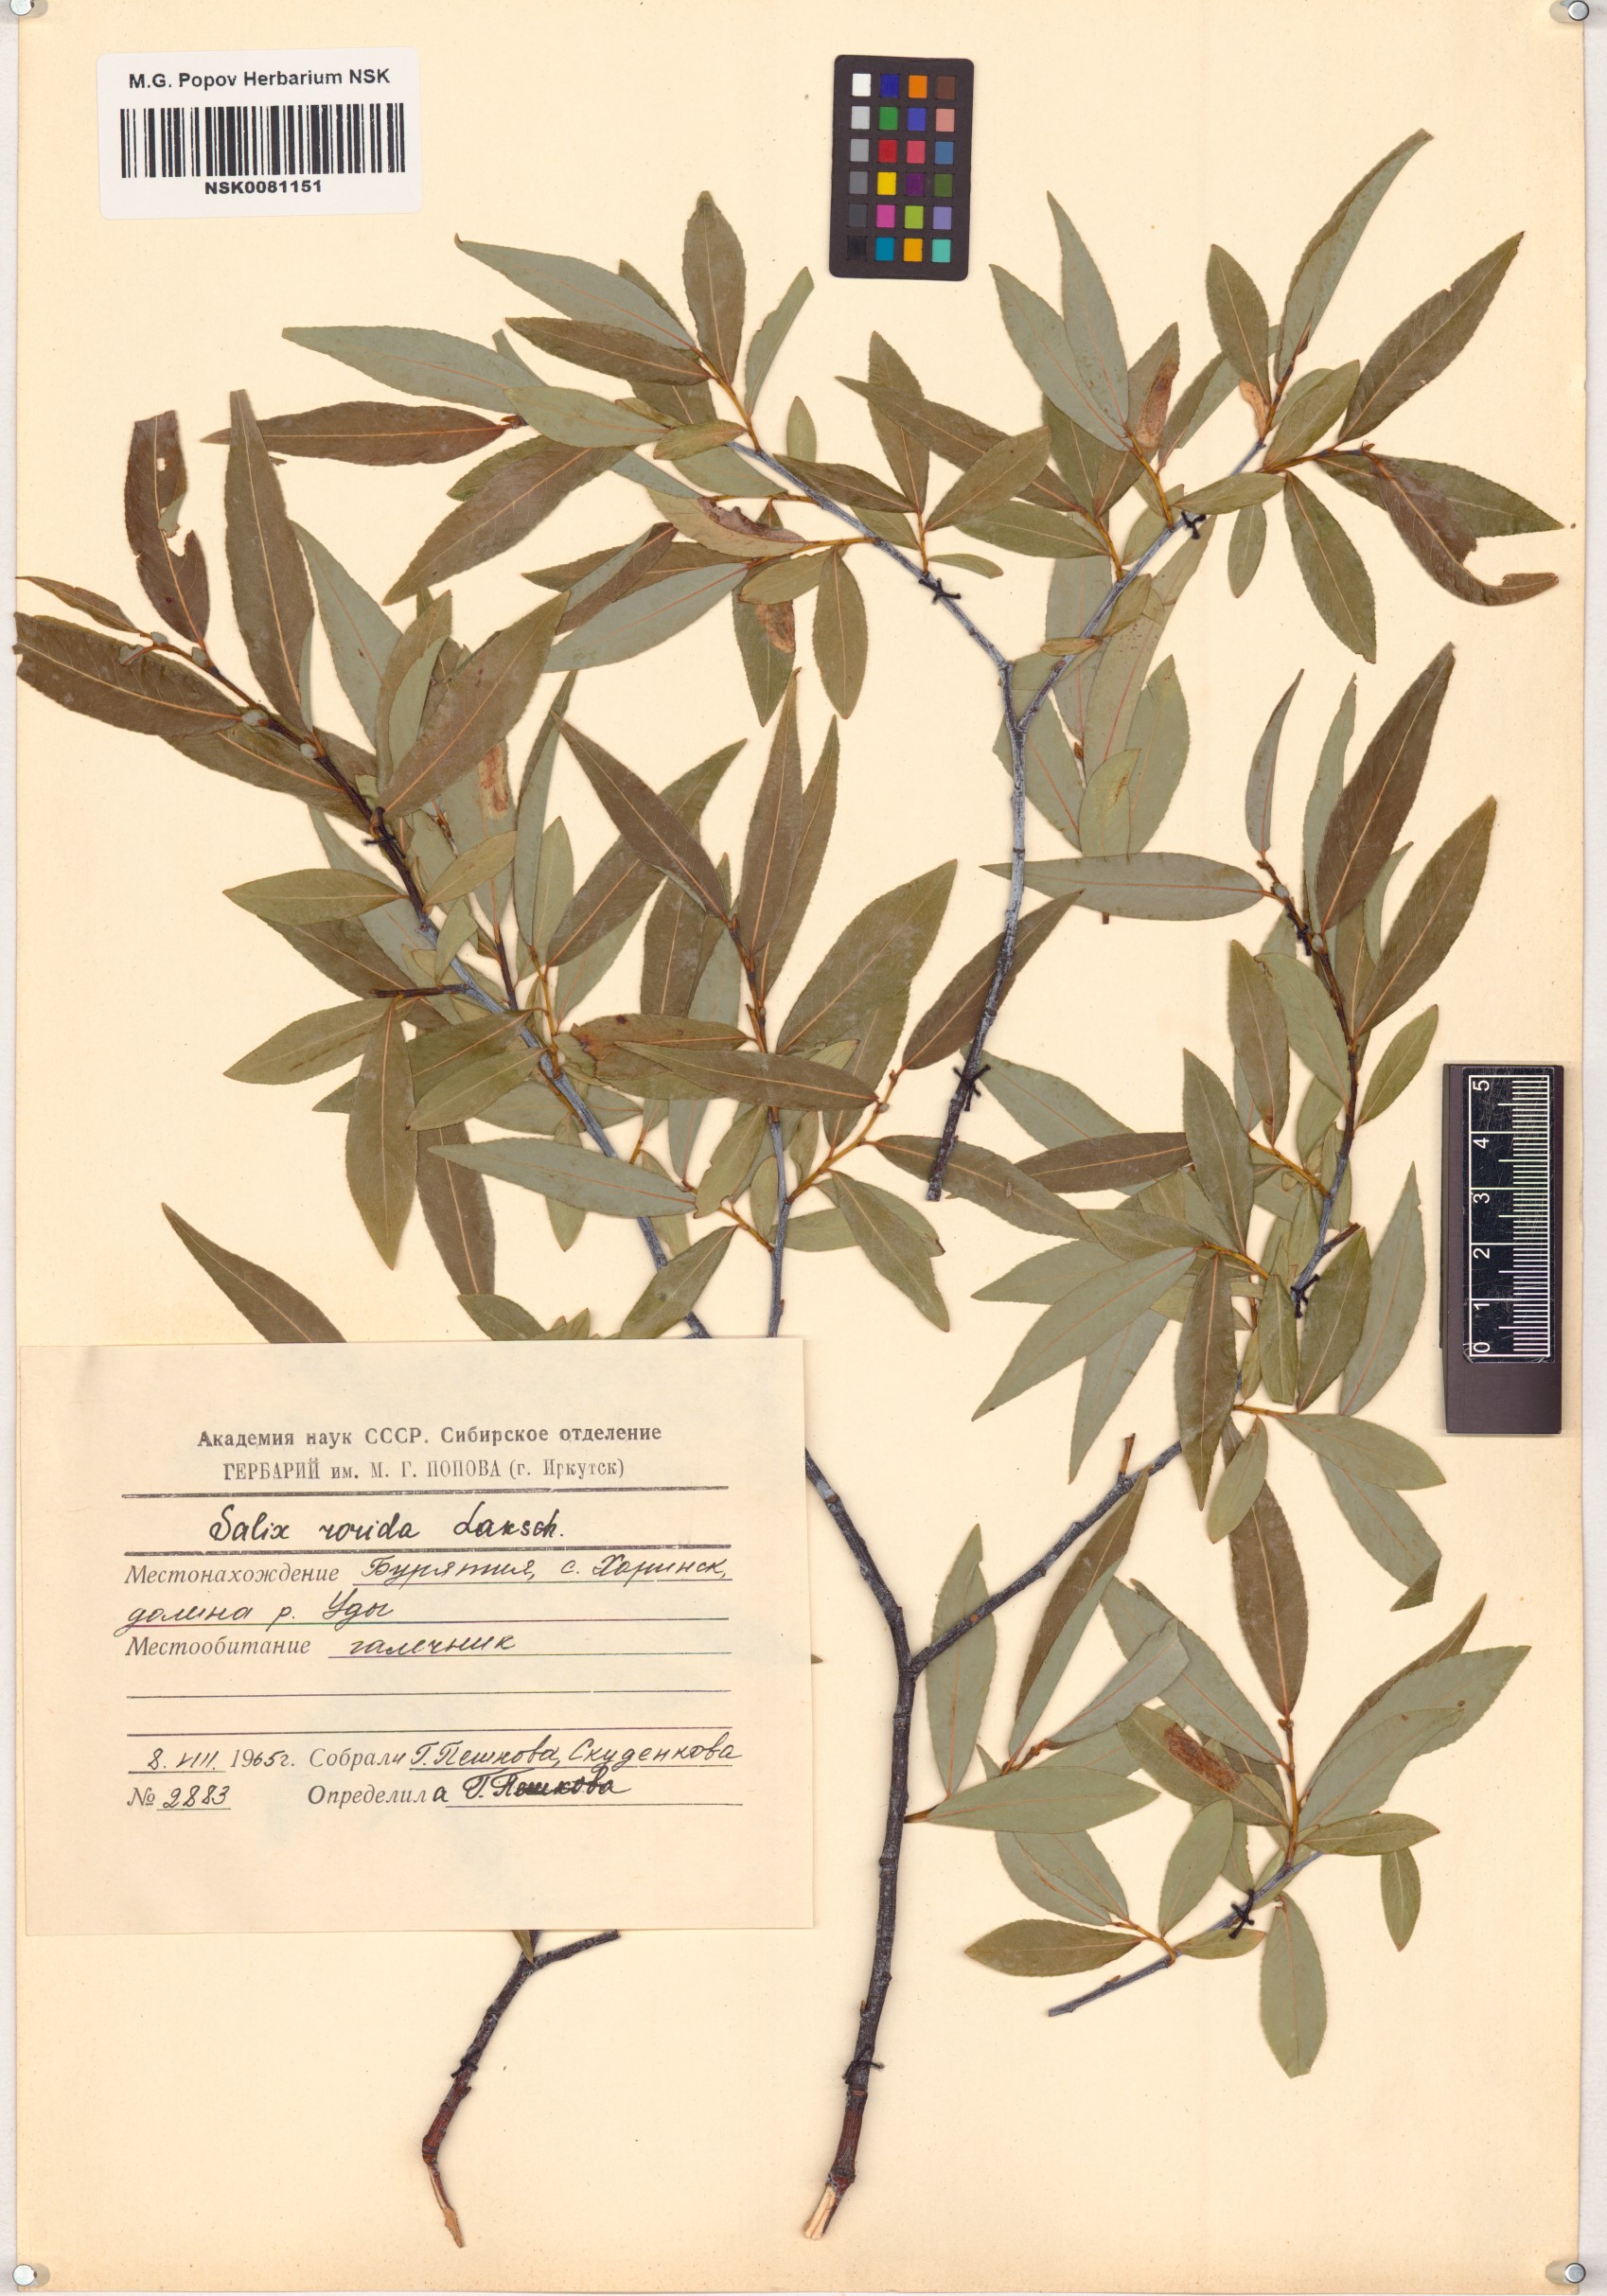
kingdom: Plantae
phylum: Tracheophyta
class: Magnoliopsida
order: Malpighiales
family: Salicaceae
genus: Salix
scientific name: Salix rorida
